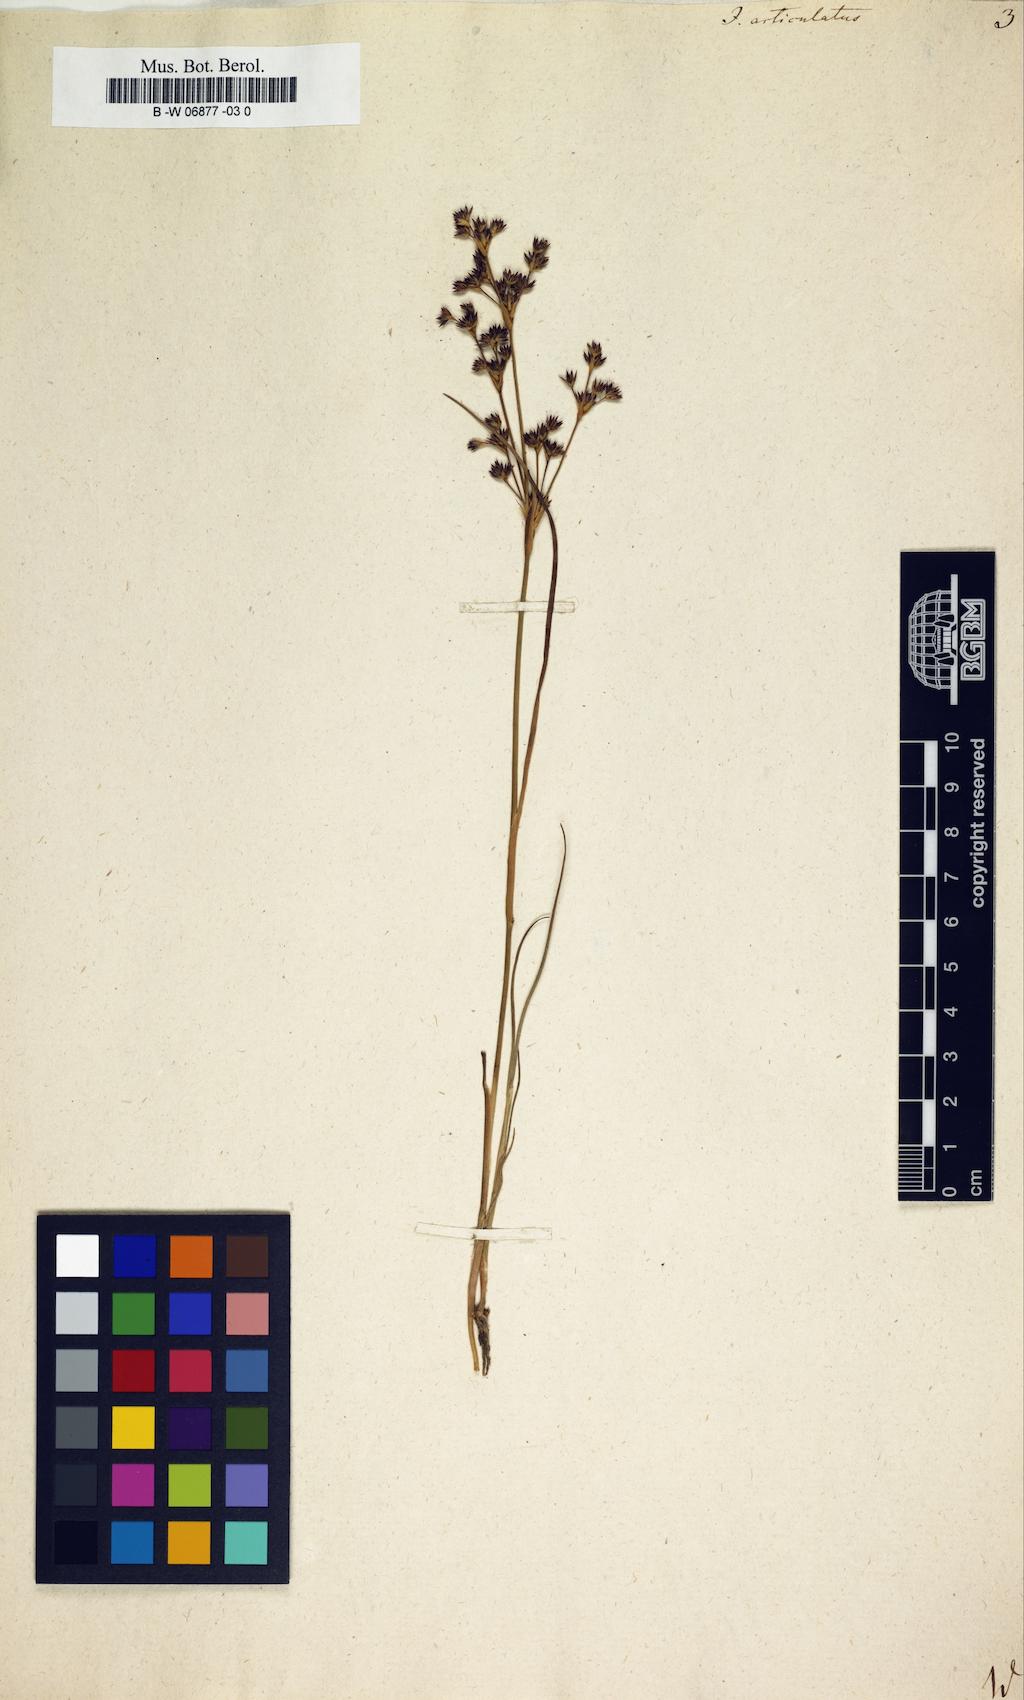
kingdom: Plantae
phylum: Tracheophyta
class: Liliopsida
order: Poales
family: Juncaceae
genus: Juncus
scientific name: Juncus articulatus
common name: Jointed rush
